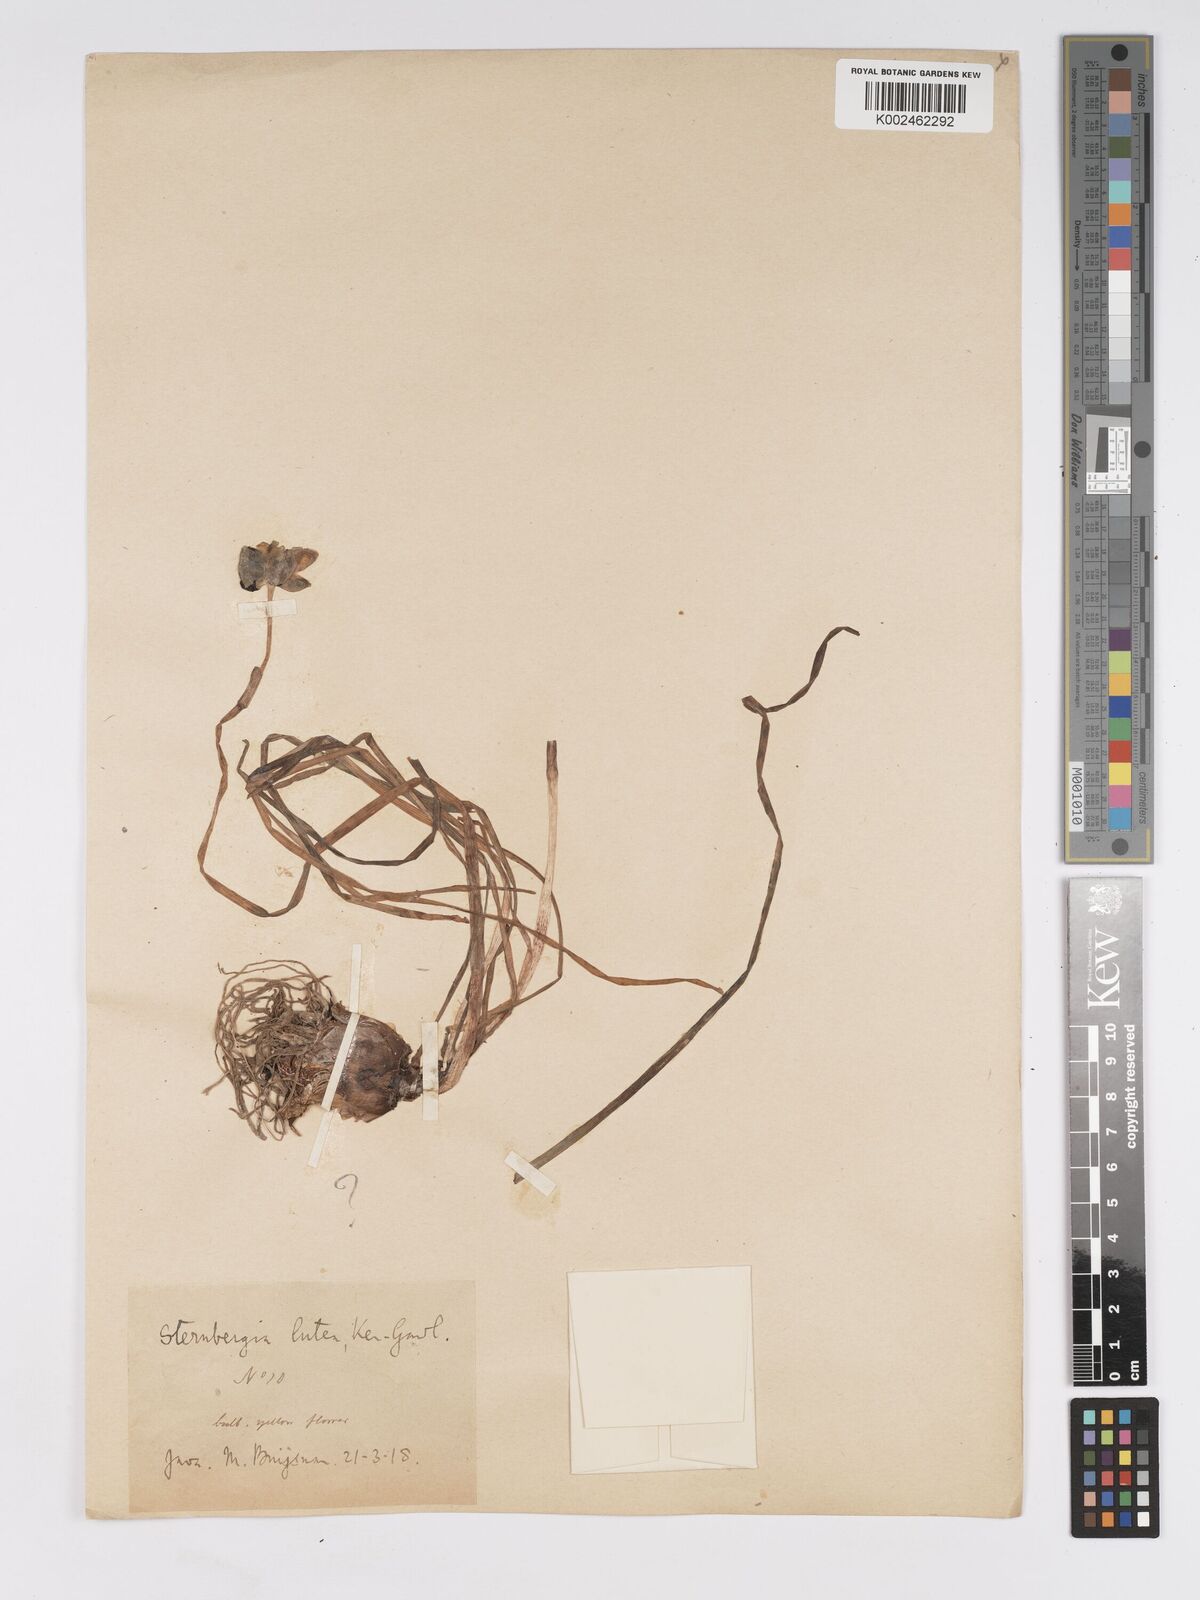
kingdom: Plantae
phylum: Tracheophyta
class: Liliopsida
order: Asparagales
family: Amaryllidaceae
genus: Sternbergia
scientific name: Sternbergia lutea
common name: Winter daffodil
